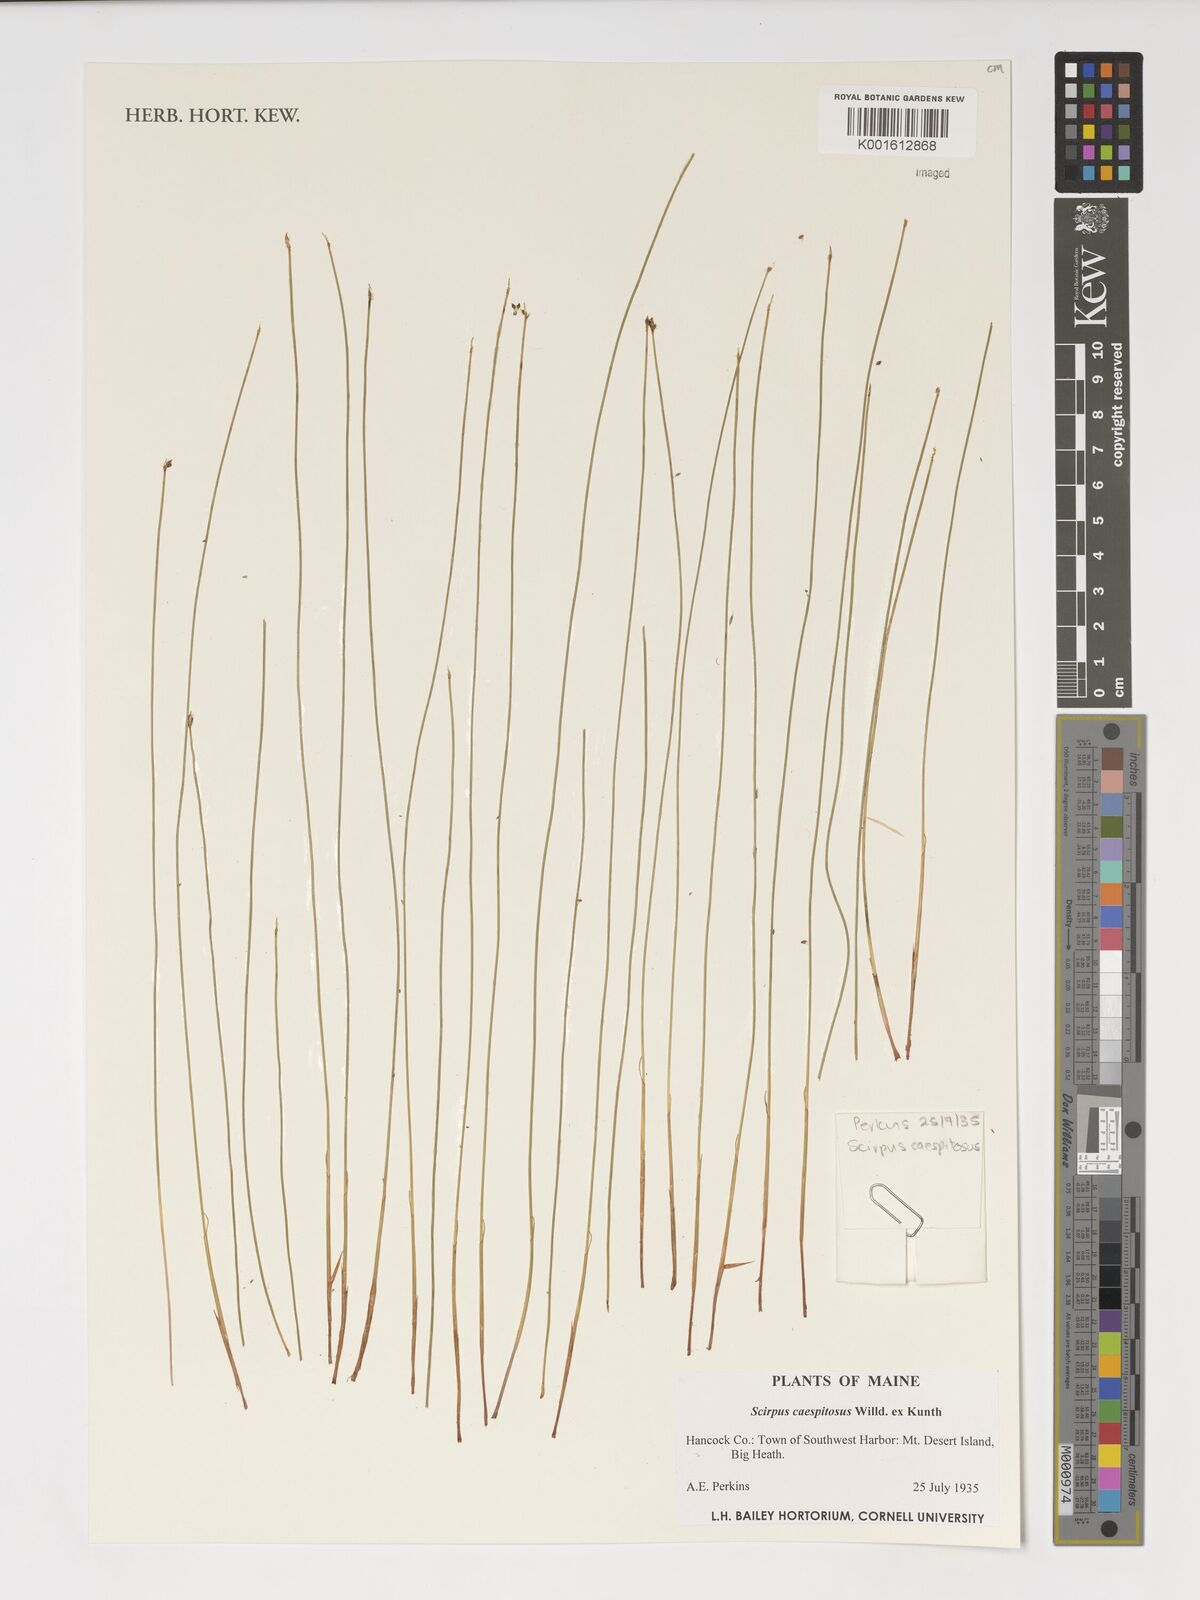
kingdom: Plantae
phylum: Tracheophyta
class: Liliopsida
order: Poales
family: Cyperaceae
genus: Eleocharis
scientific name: Eleocharis palustris
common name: Common spike-rush
